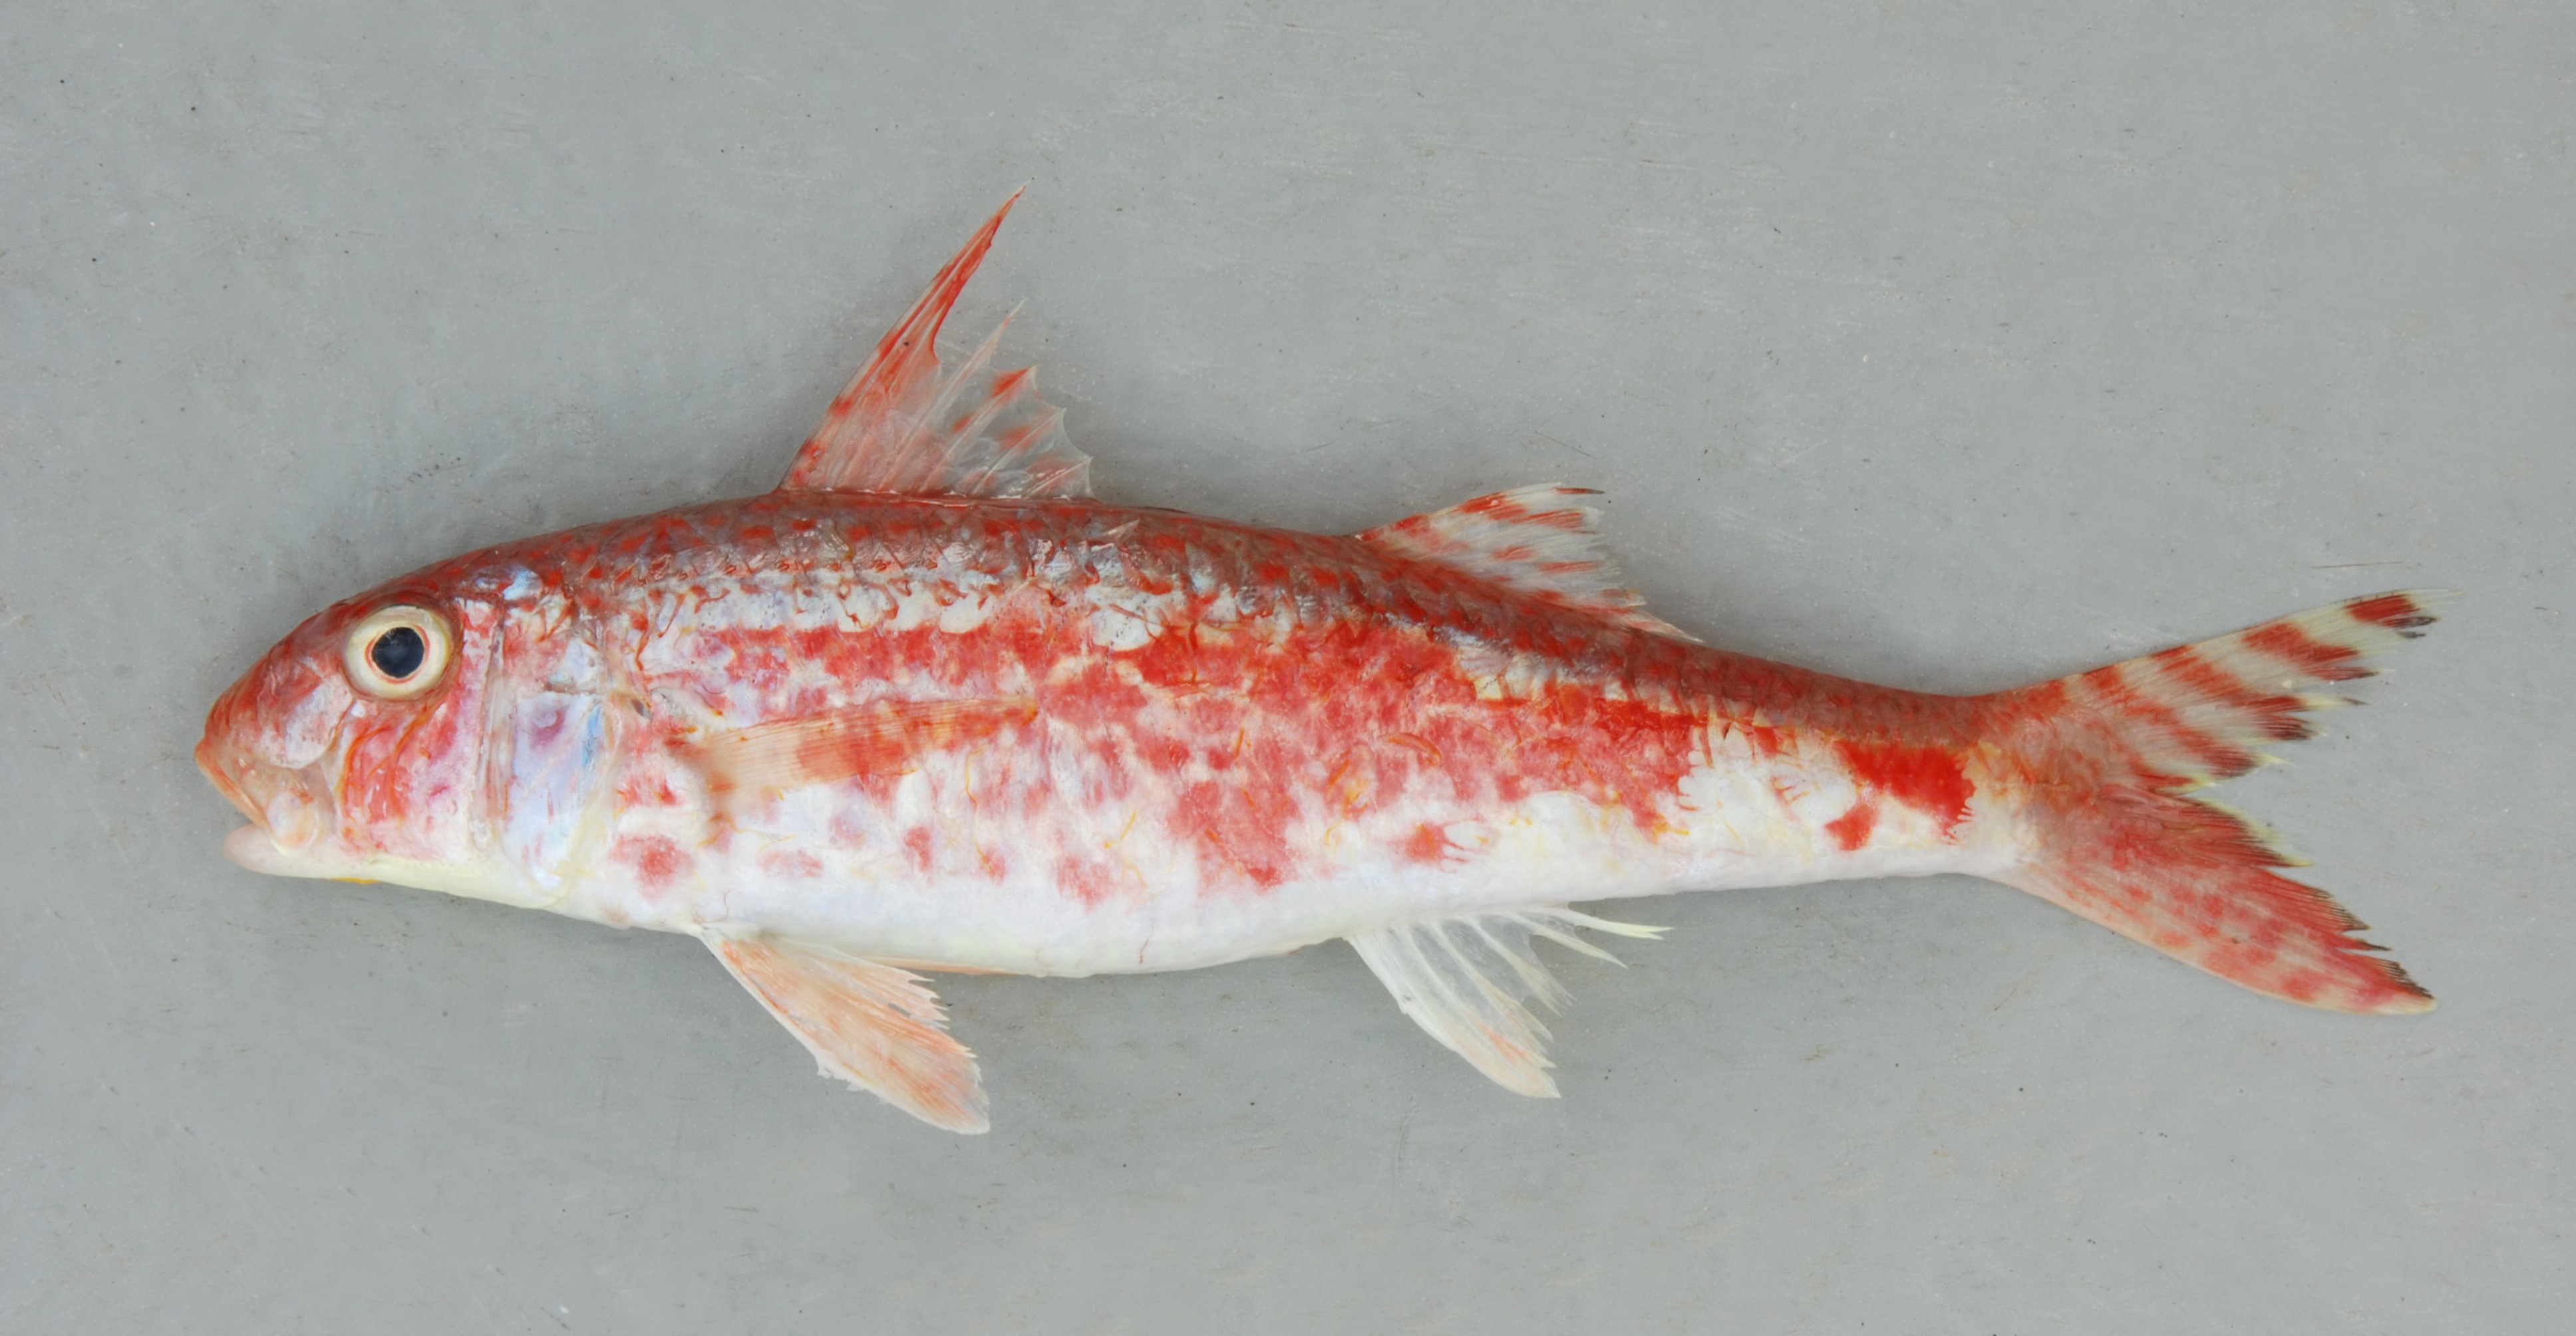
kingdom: Animalia
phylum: Chordata
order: Perciformes
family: Mullidae
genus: Upeneus
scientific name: Upeneus guttatus
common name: Spotted goatfish
